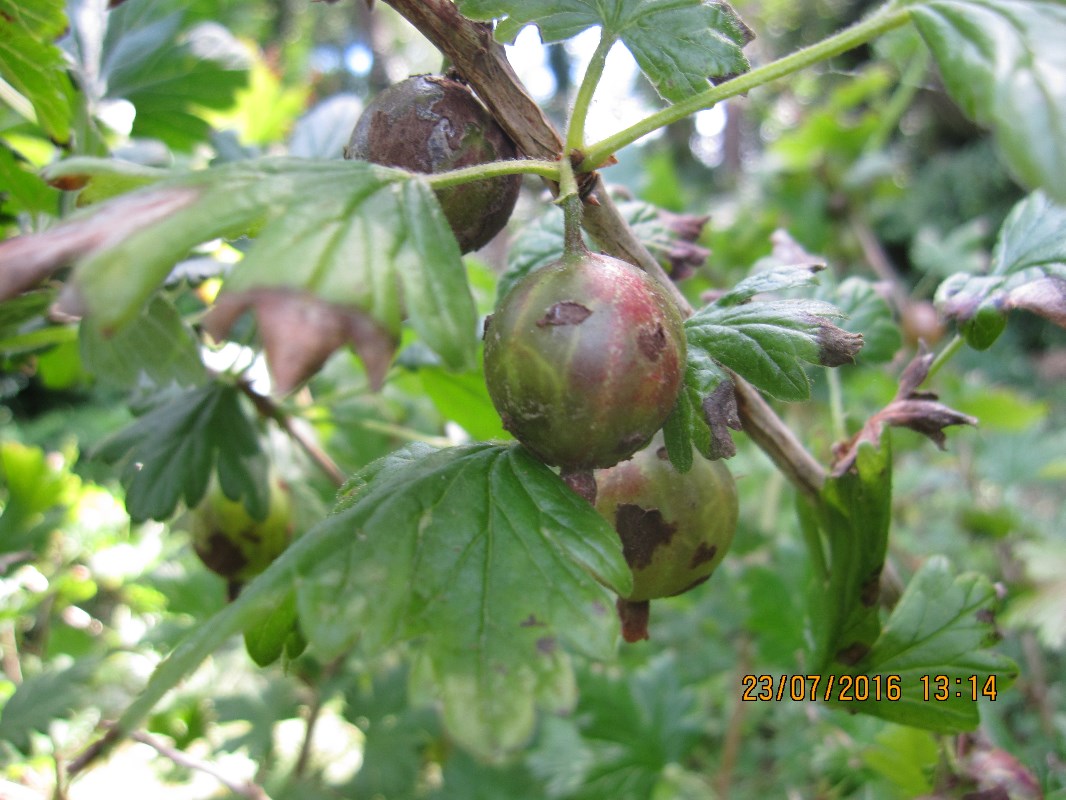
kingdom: Fungi
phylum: Ascomycota
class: Leotiomycetes
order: Helotiales
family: Erysiphaceae
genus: Podosphaera
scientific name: Podosphaera mors-uvae
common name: American gooseberry mildew
